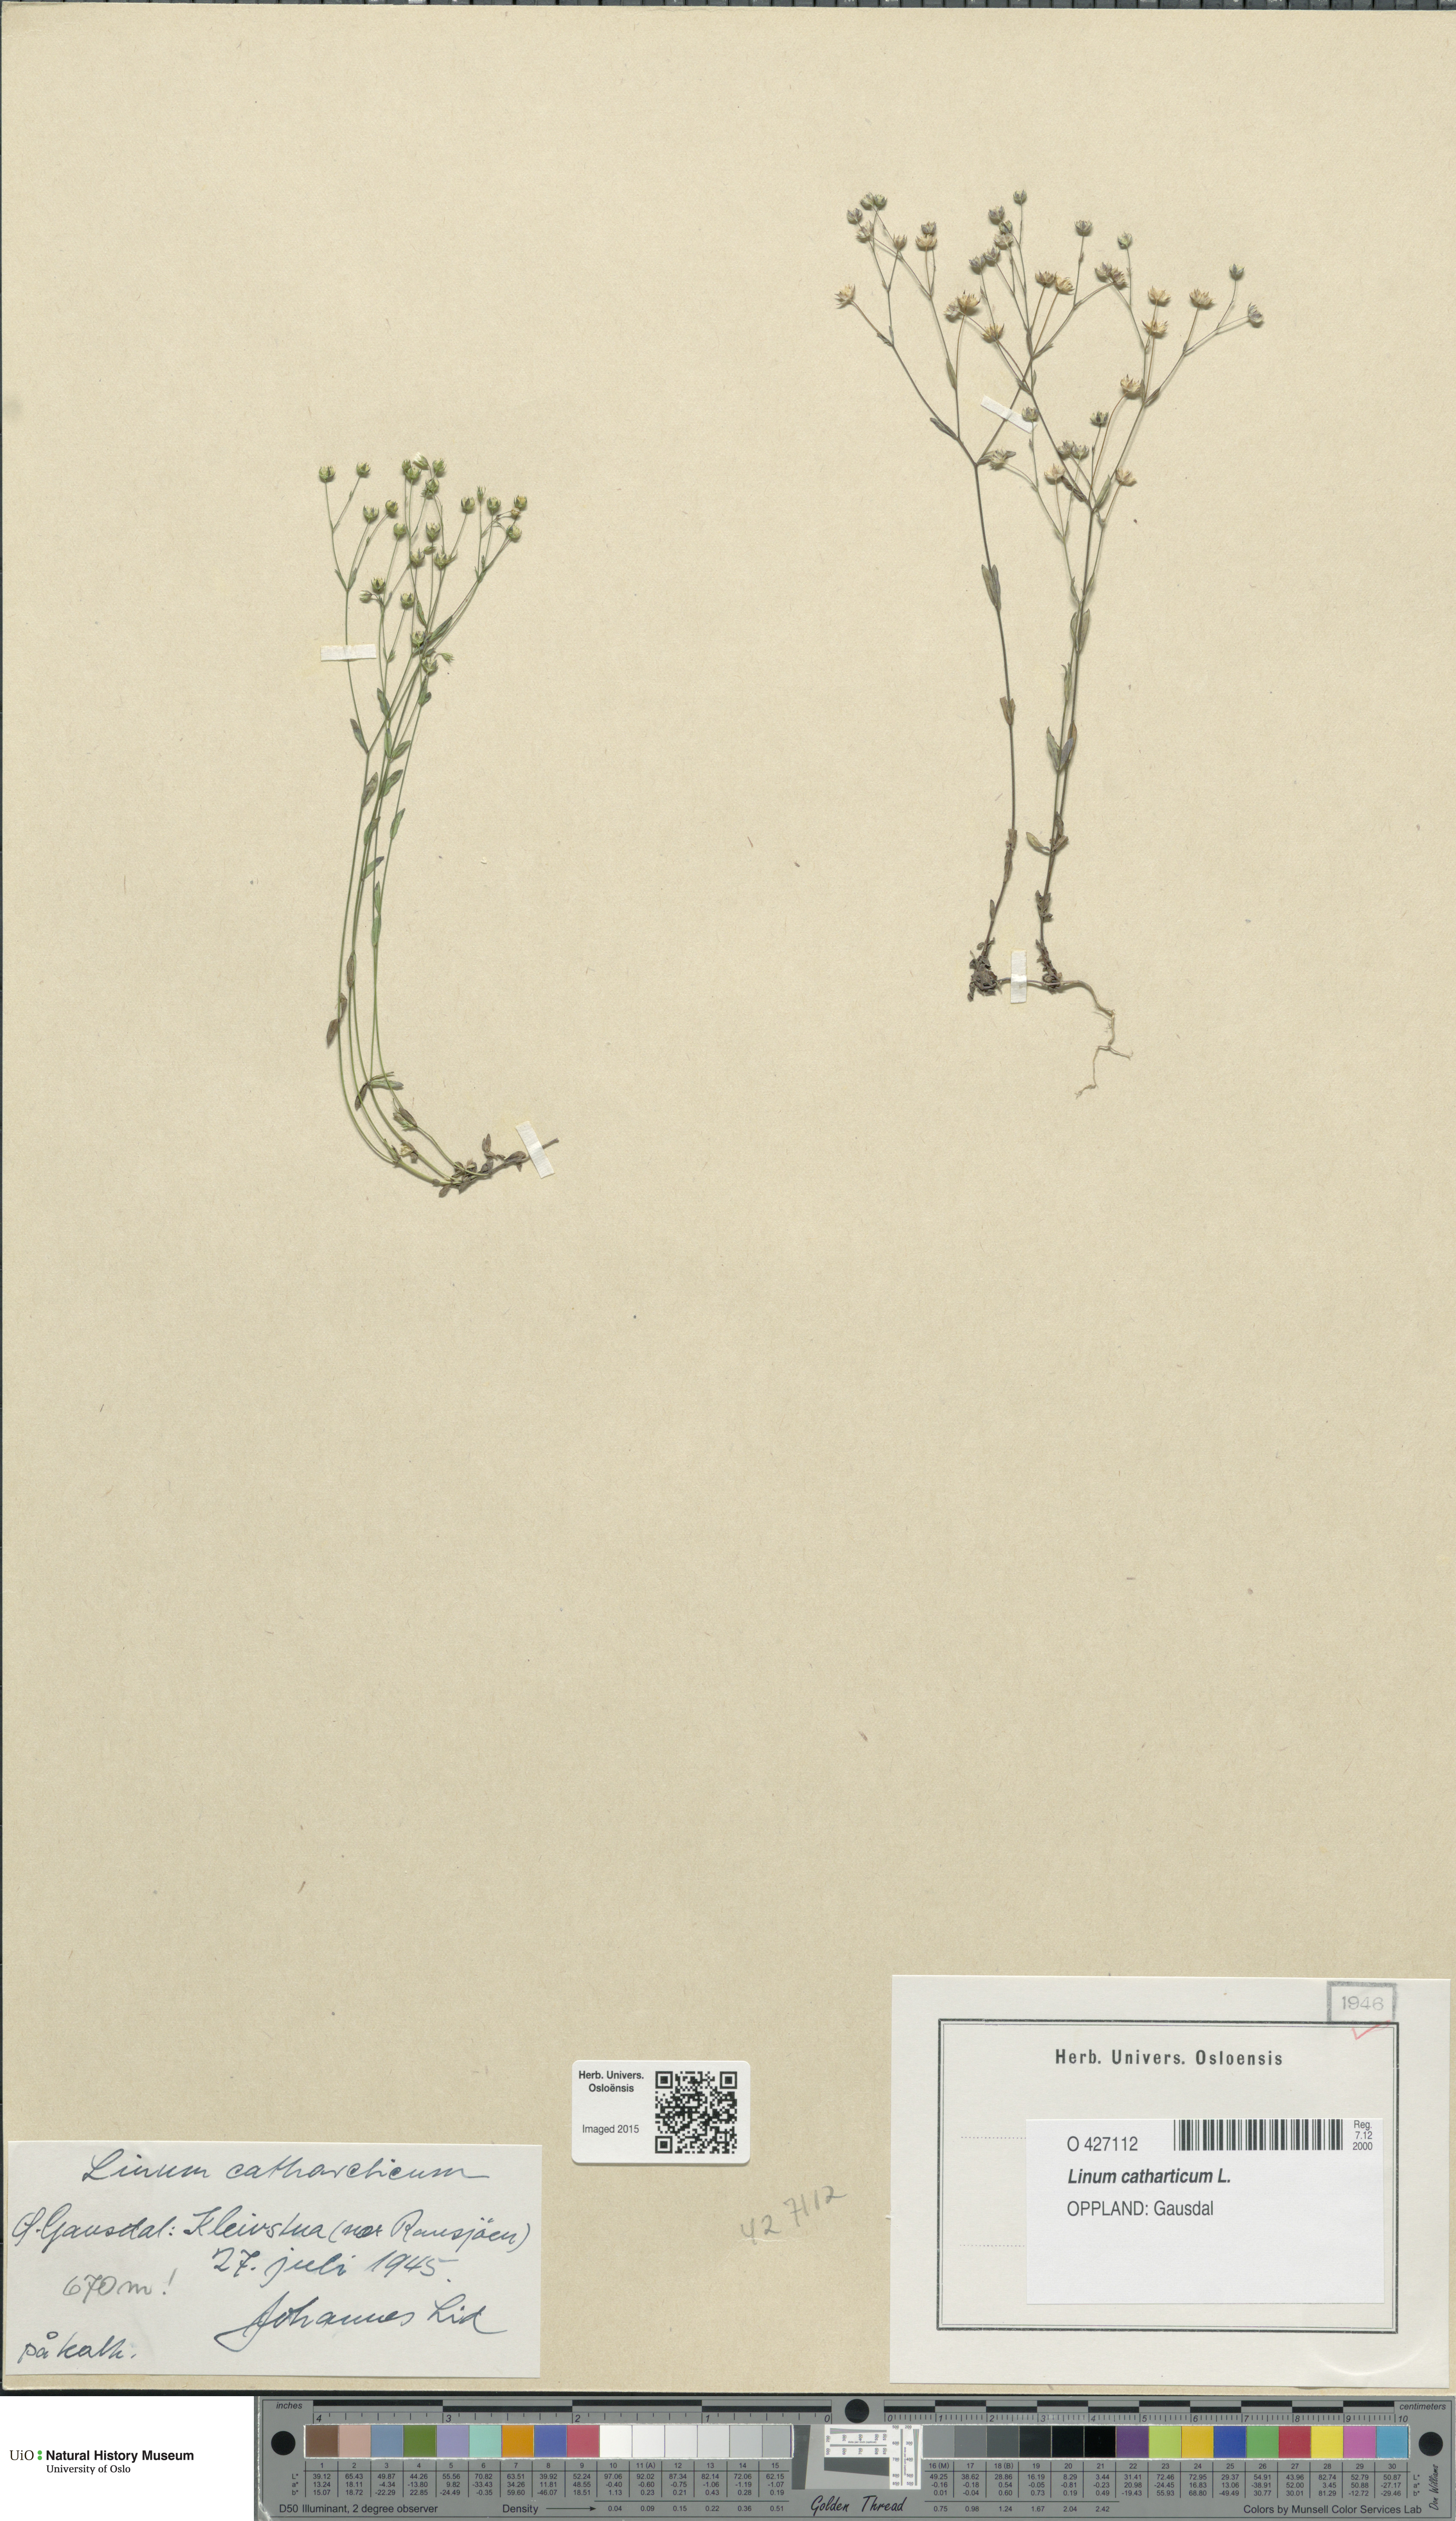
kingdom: Plantae
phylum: Tracheophyta
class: Magnoliopsida
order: Malpighiales
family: Linaceae
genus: Linum
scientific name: Linum catharticum
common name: Fairy flax
